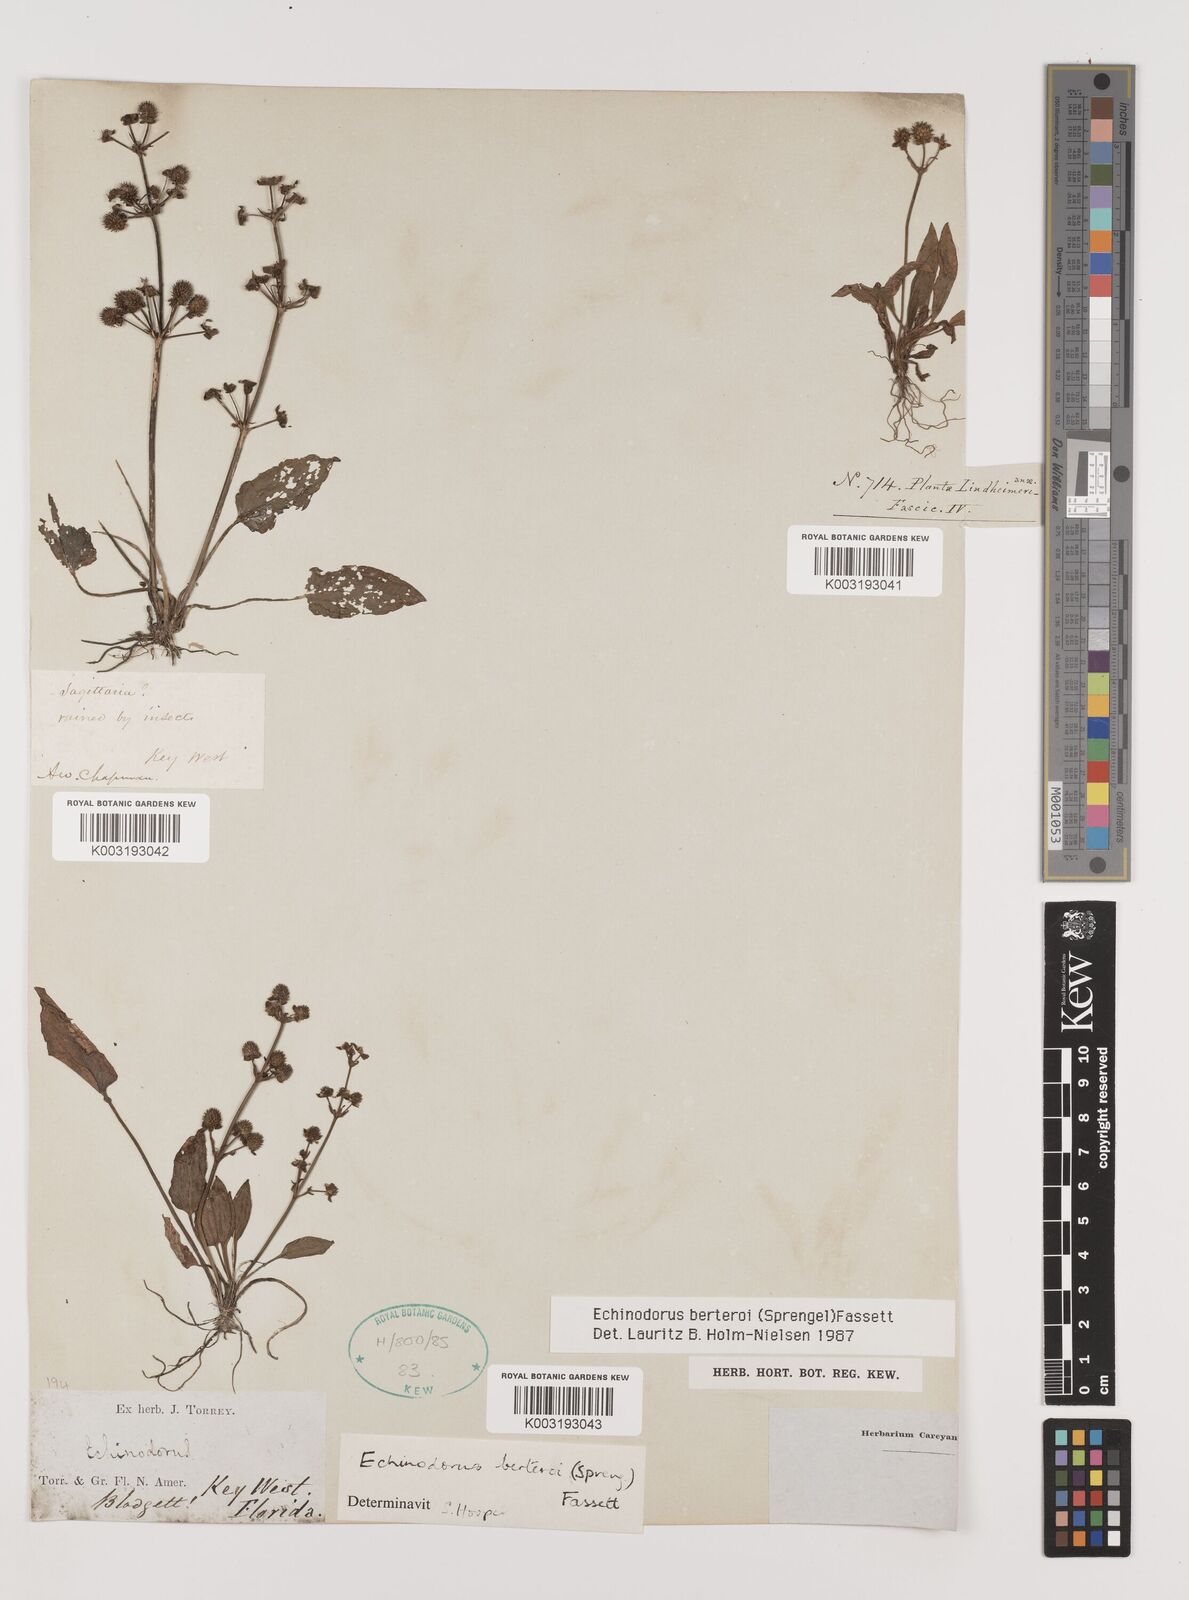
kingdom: Plantae
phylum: Tracheophyta
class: Liliopsida
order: Alismatales
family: Alismataceae
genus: Echinodorus
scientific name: Echinodorus berteroi
